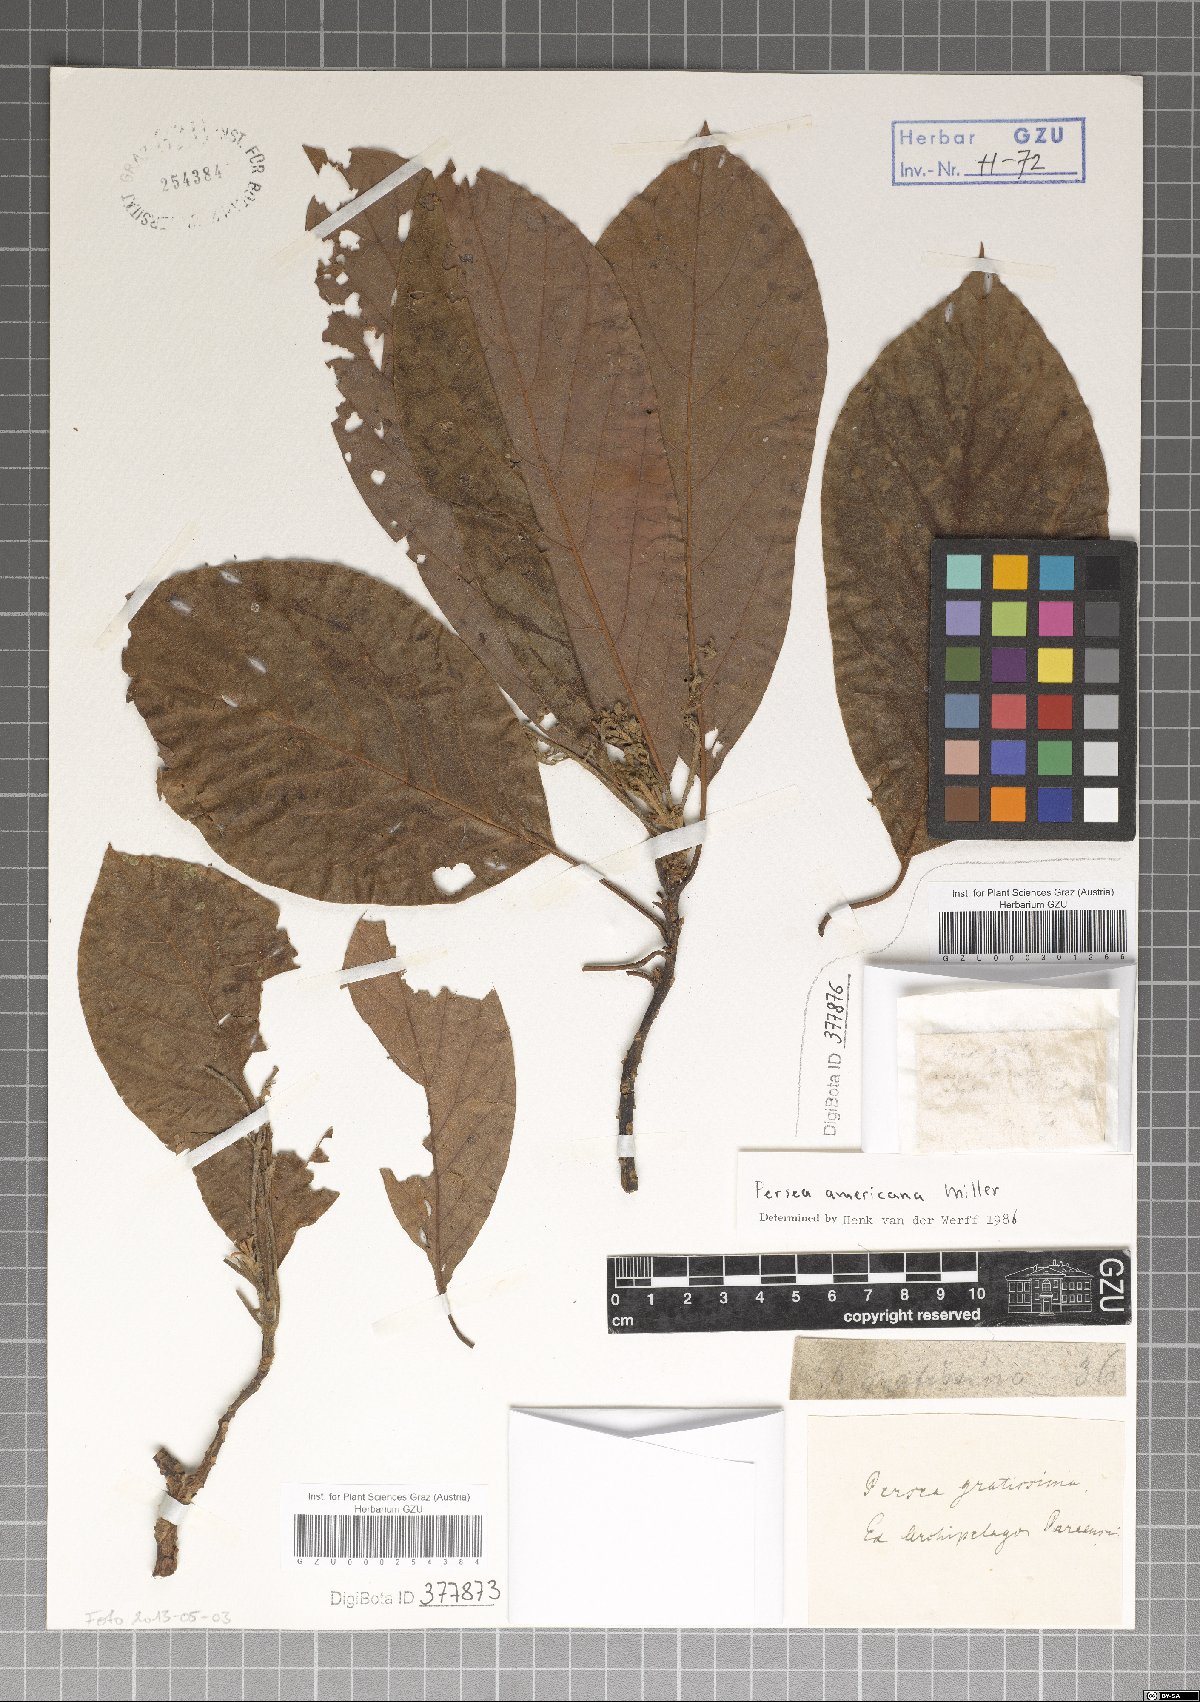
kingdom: Plantae
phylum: Tracheophyta
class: Magnoliopsida
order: Laurales
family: Lauraceae
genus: Persea
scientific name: Persea americana
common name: Avocado
